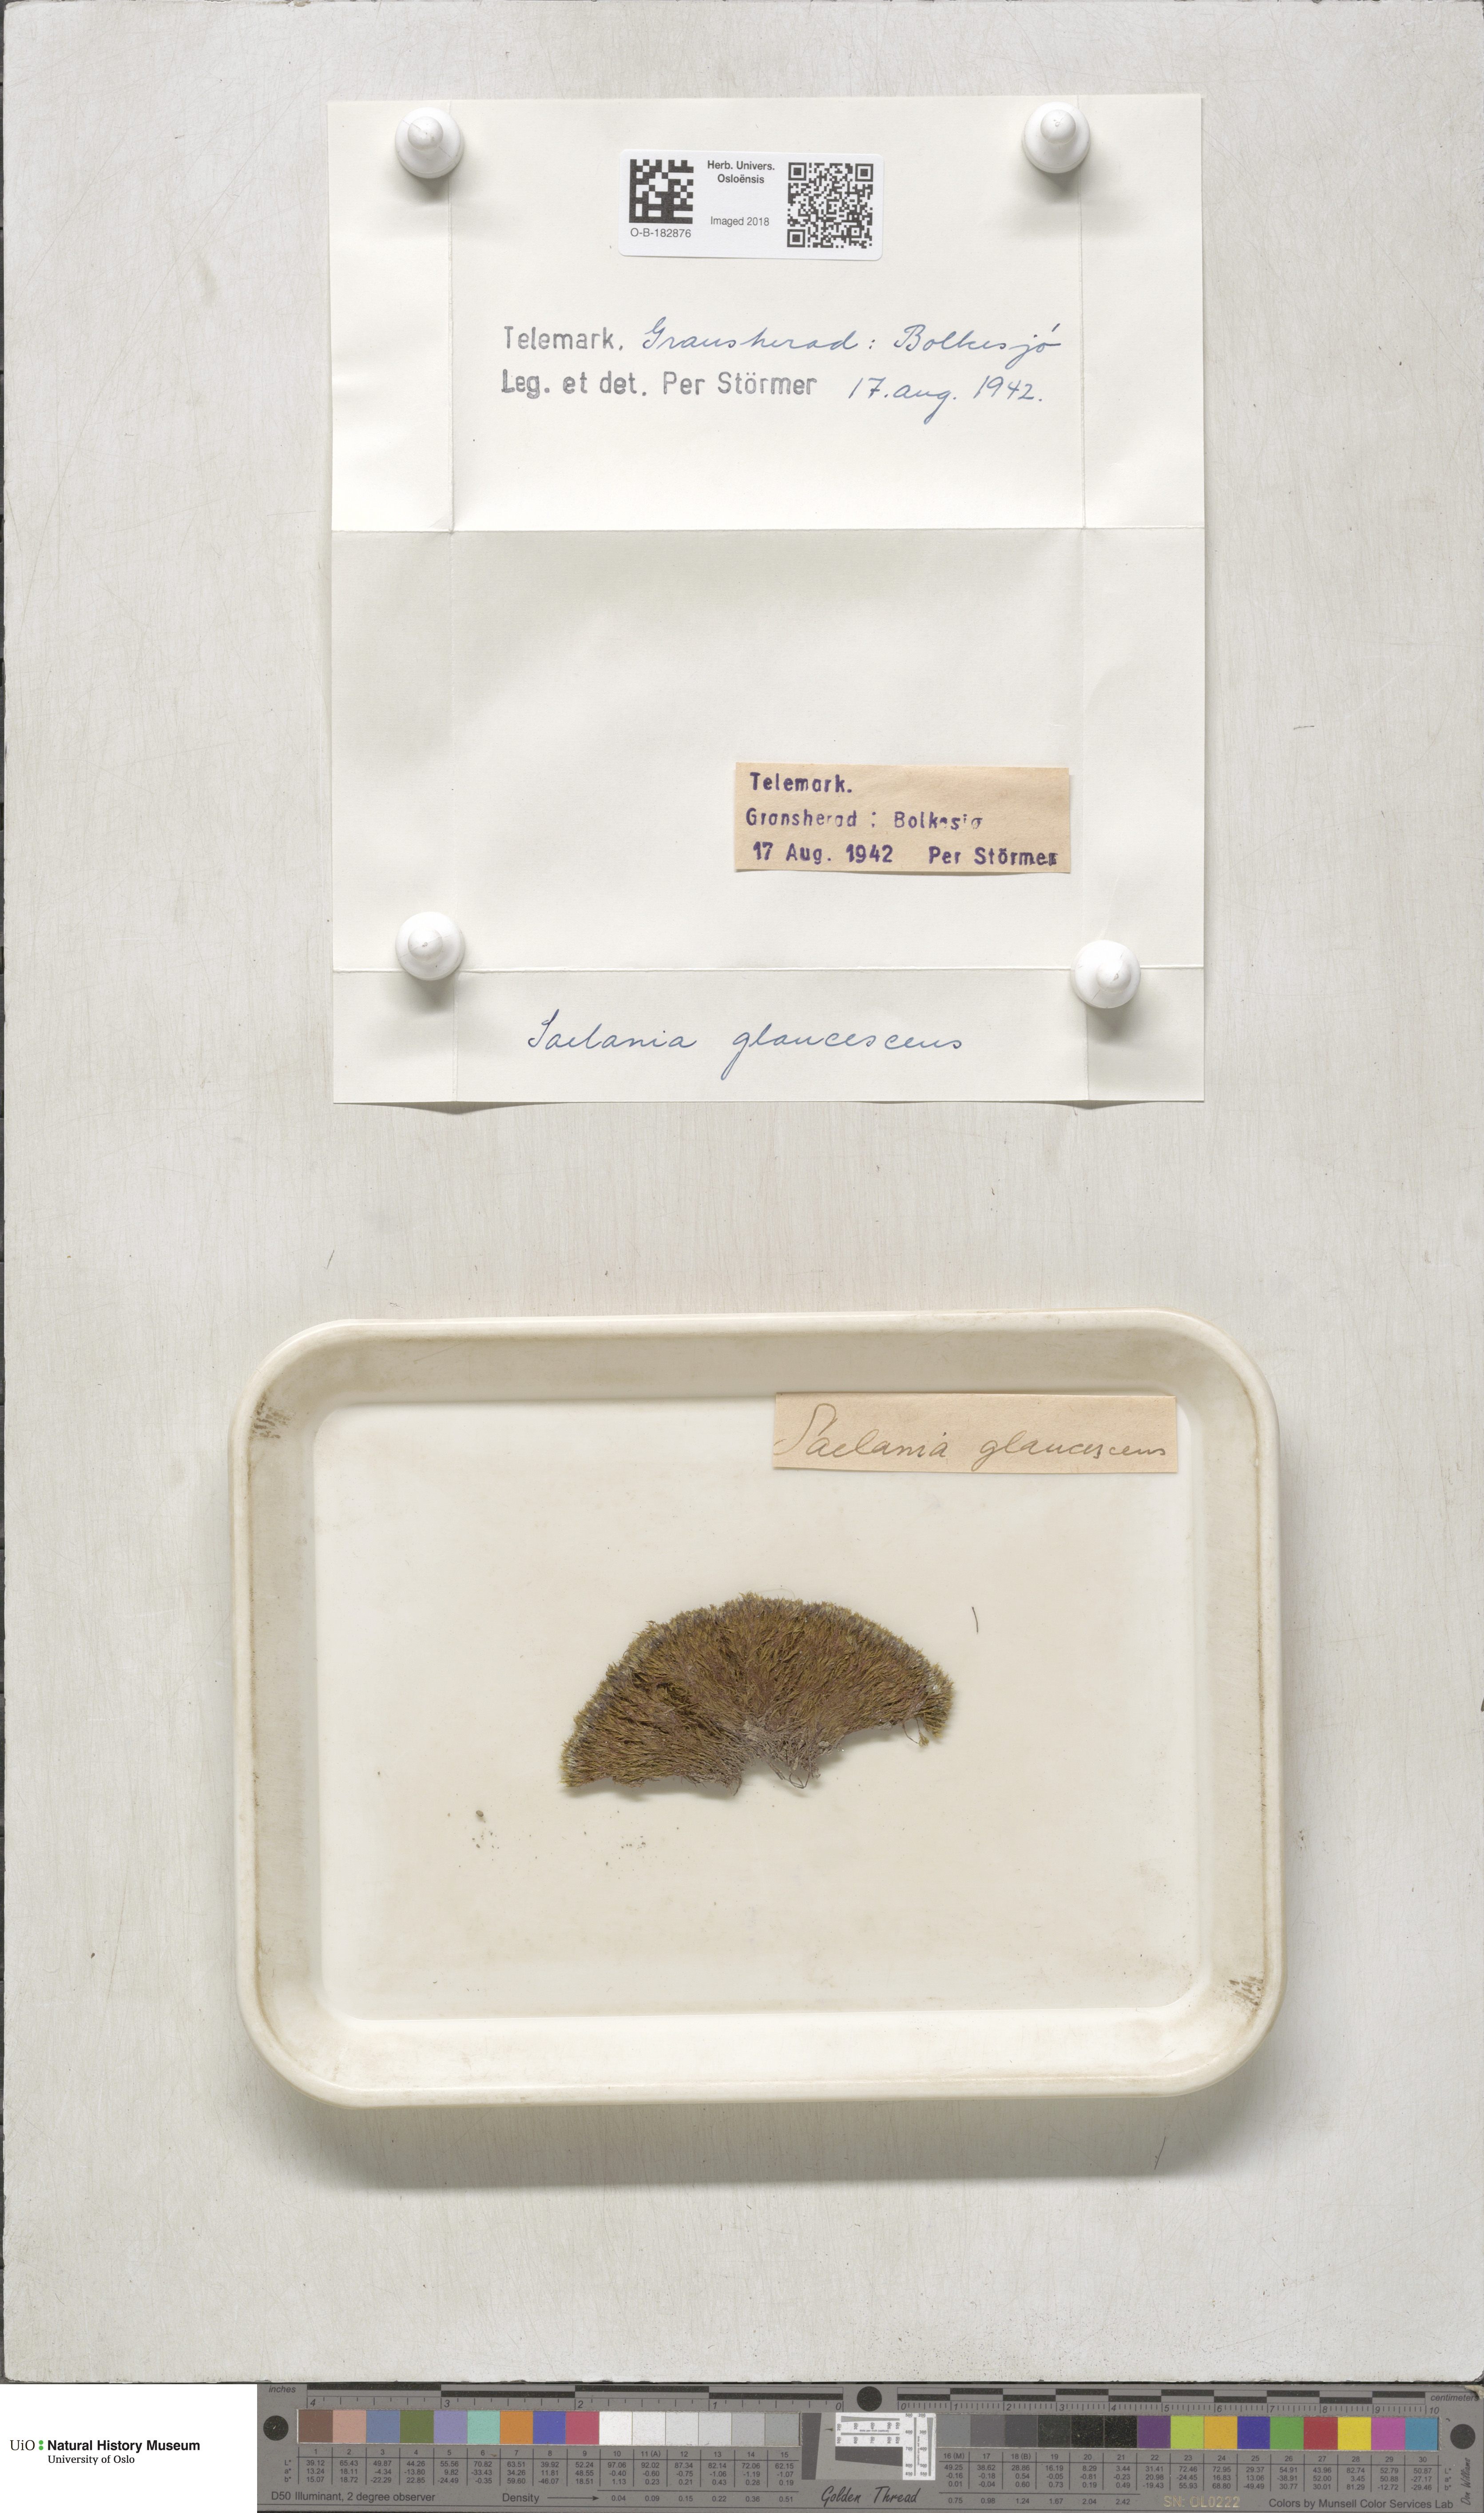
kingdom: Plantae
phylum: Bryophyta
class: Bryopsida
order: Grimmiales
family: Saelaniaceae
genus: Saelania
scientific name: Saelania glaucescens
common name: Blue dew-moss
